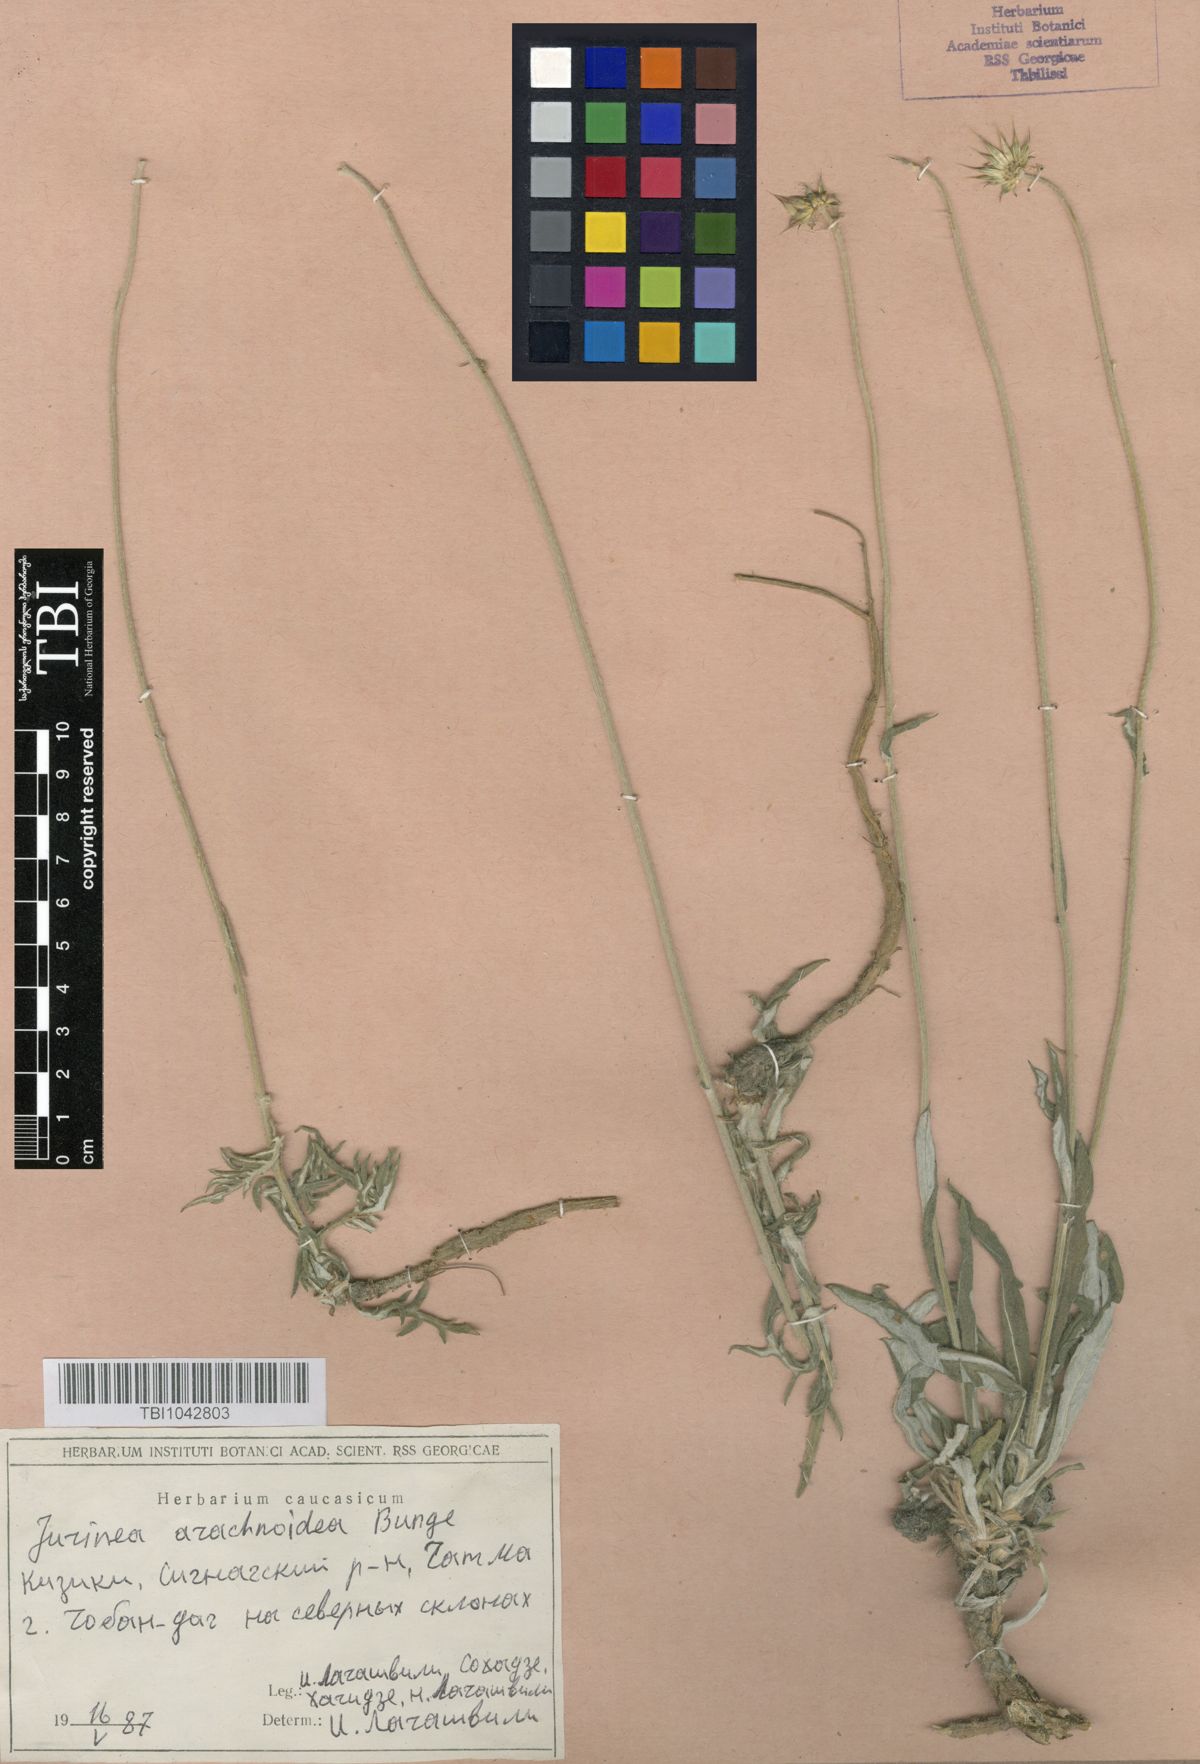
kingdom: Plantae
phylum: Tracheophyta
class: Magnoliopsida
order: Asterales
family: Asteraceae
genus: Jurinea
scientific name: Jurinea blanda
